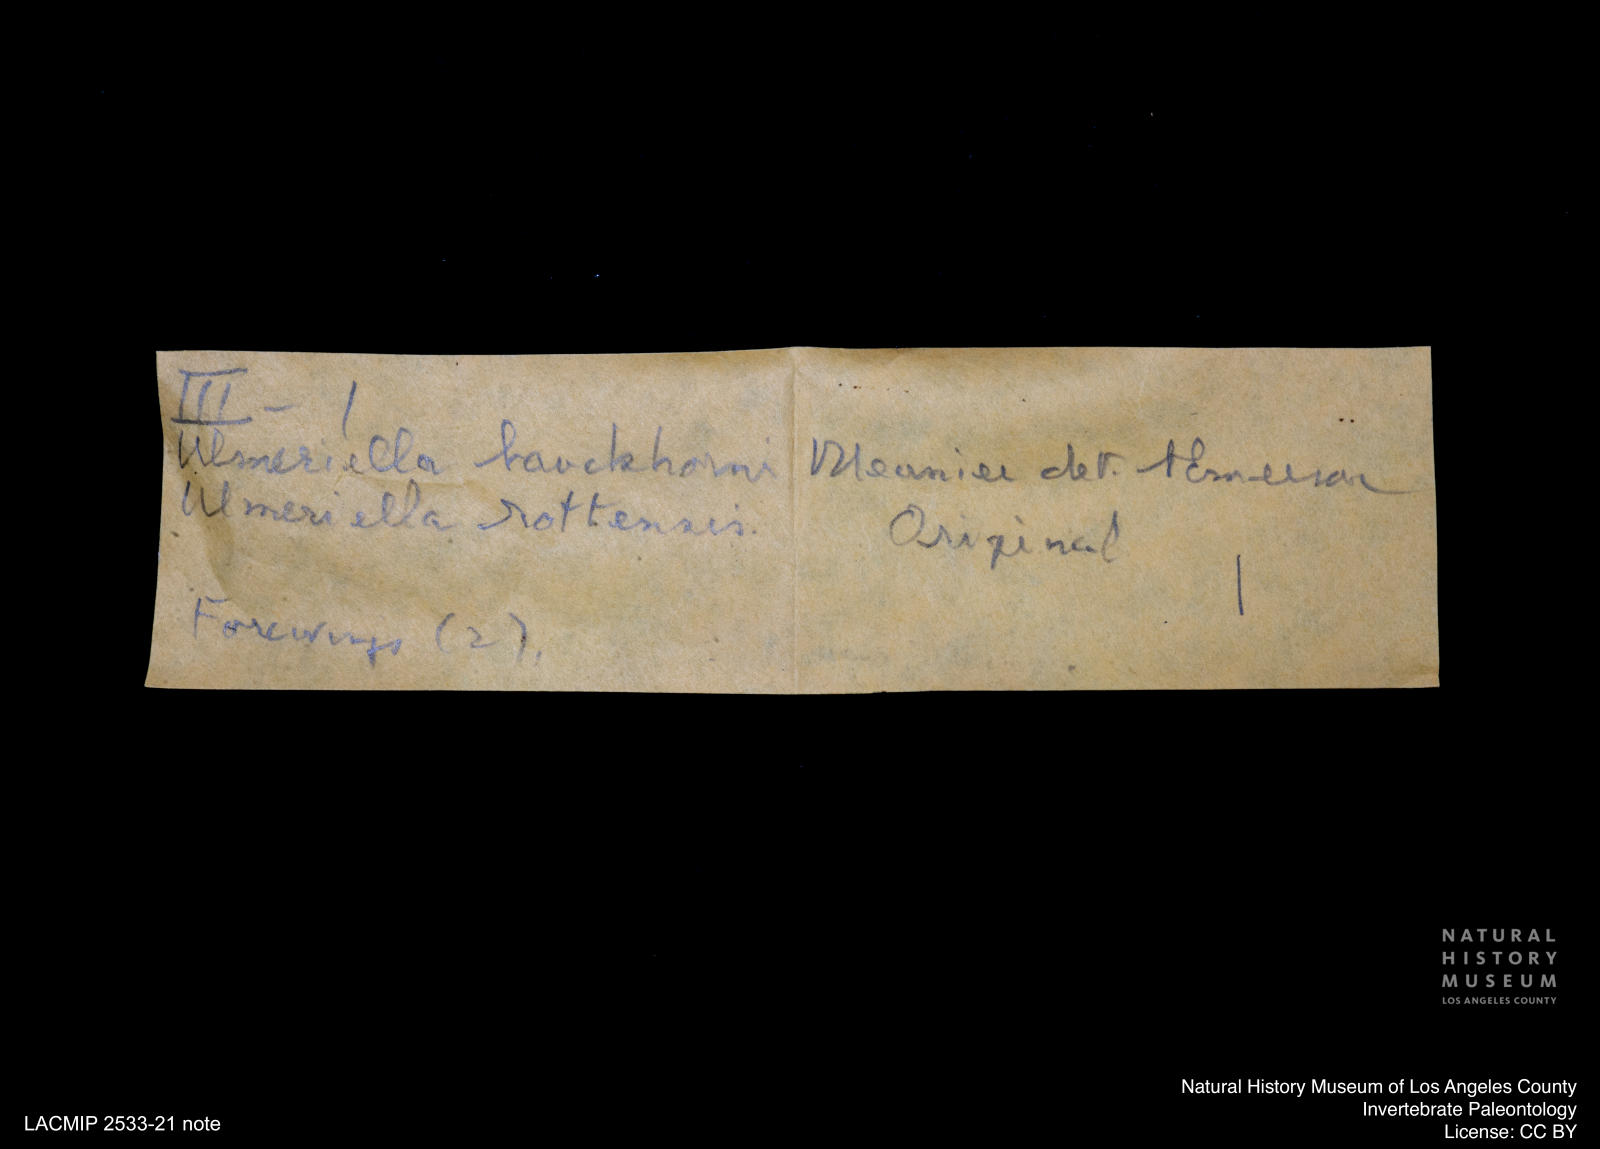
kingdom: Animalia
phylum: Arthropoda
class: Insecta
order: Blattodea
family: Hodotermitidae
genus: Ulmeriella
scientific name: Ulmeriella bauckhorni
